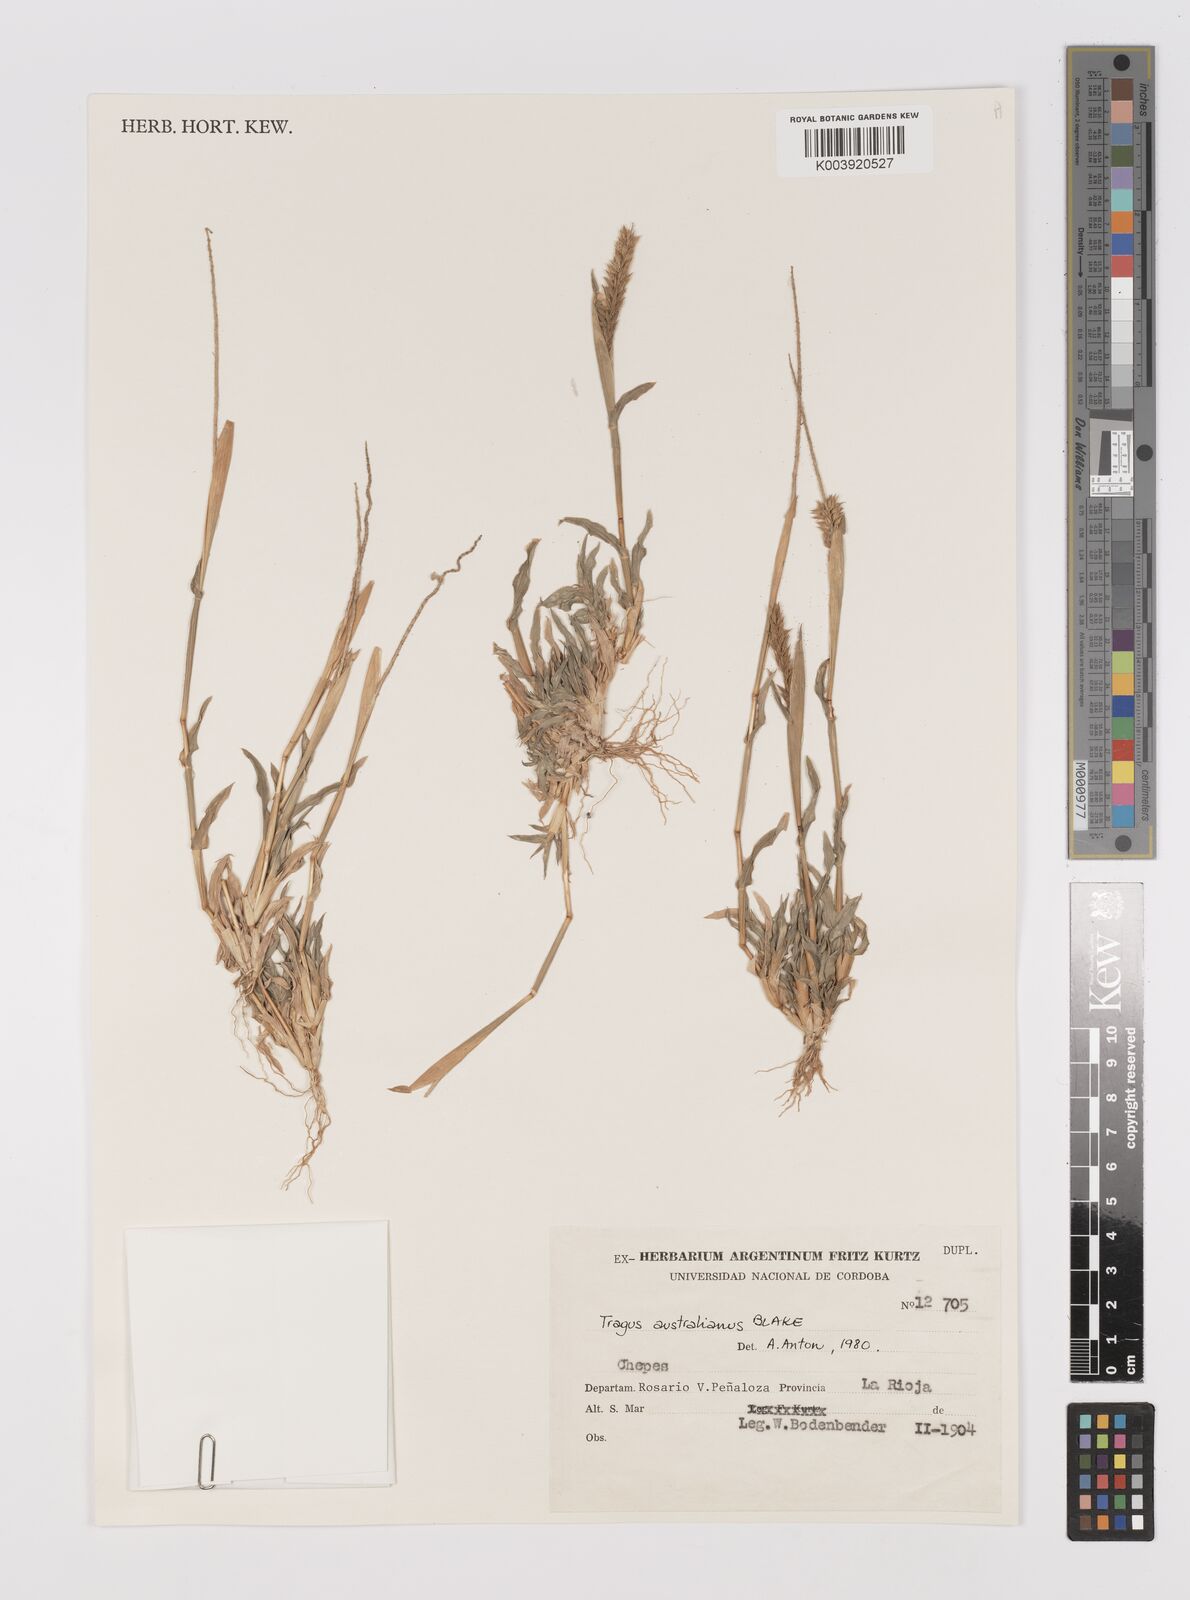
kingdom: Plantae
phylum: Tracheophyta
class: Liliopsida
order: Poales
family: Poaceae
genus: Tragus
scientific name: Tragus australianus
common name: Australian bur-grass
